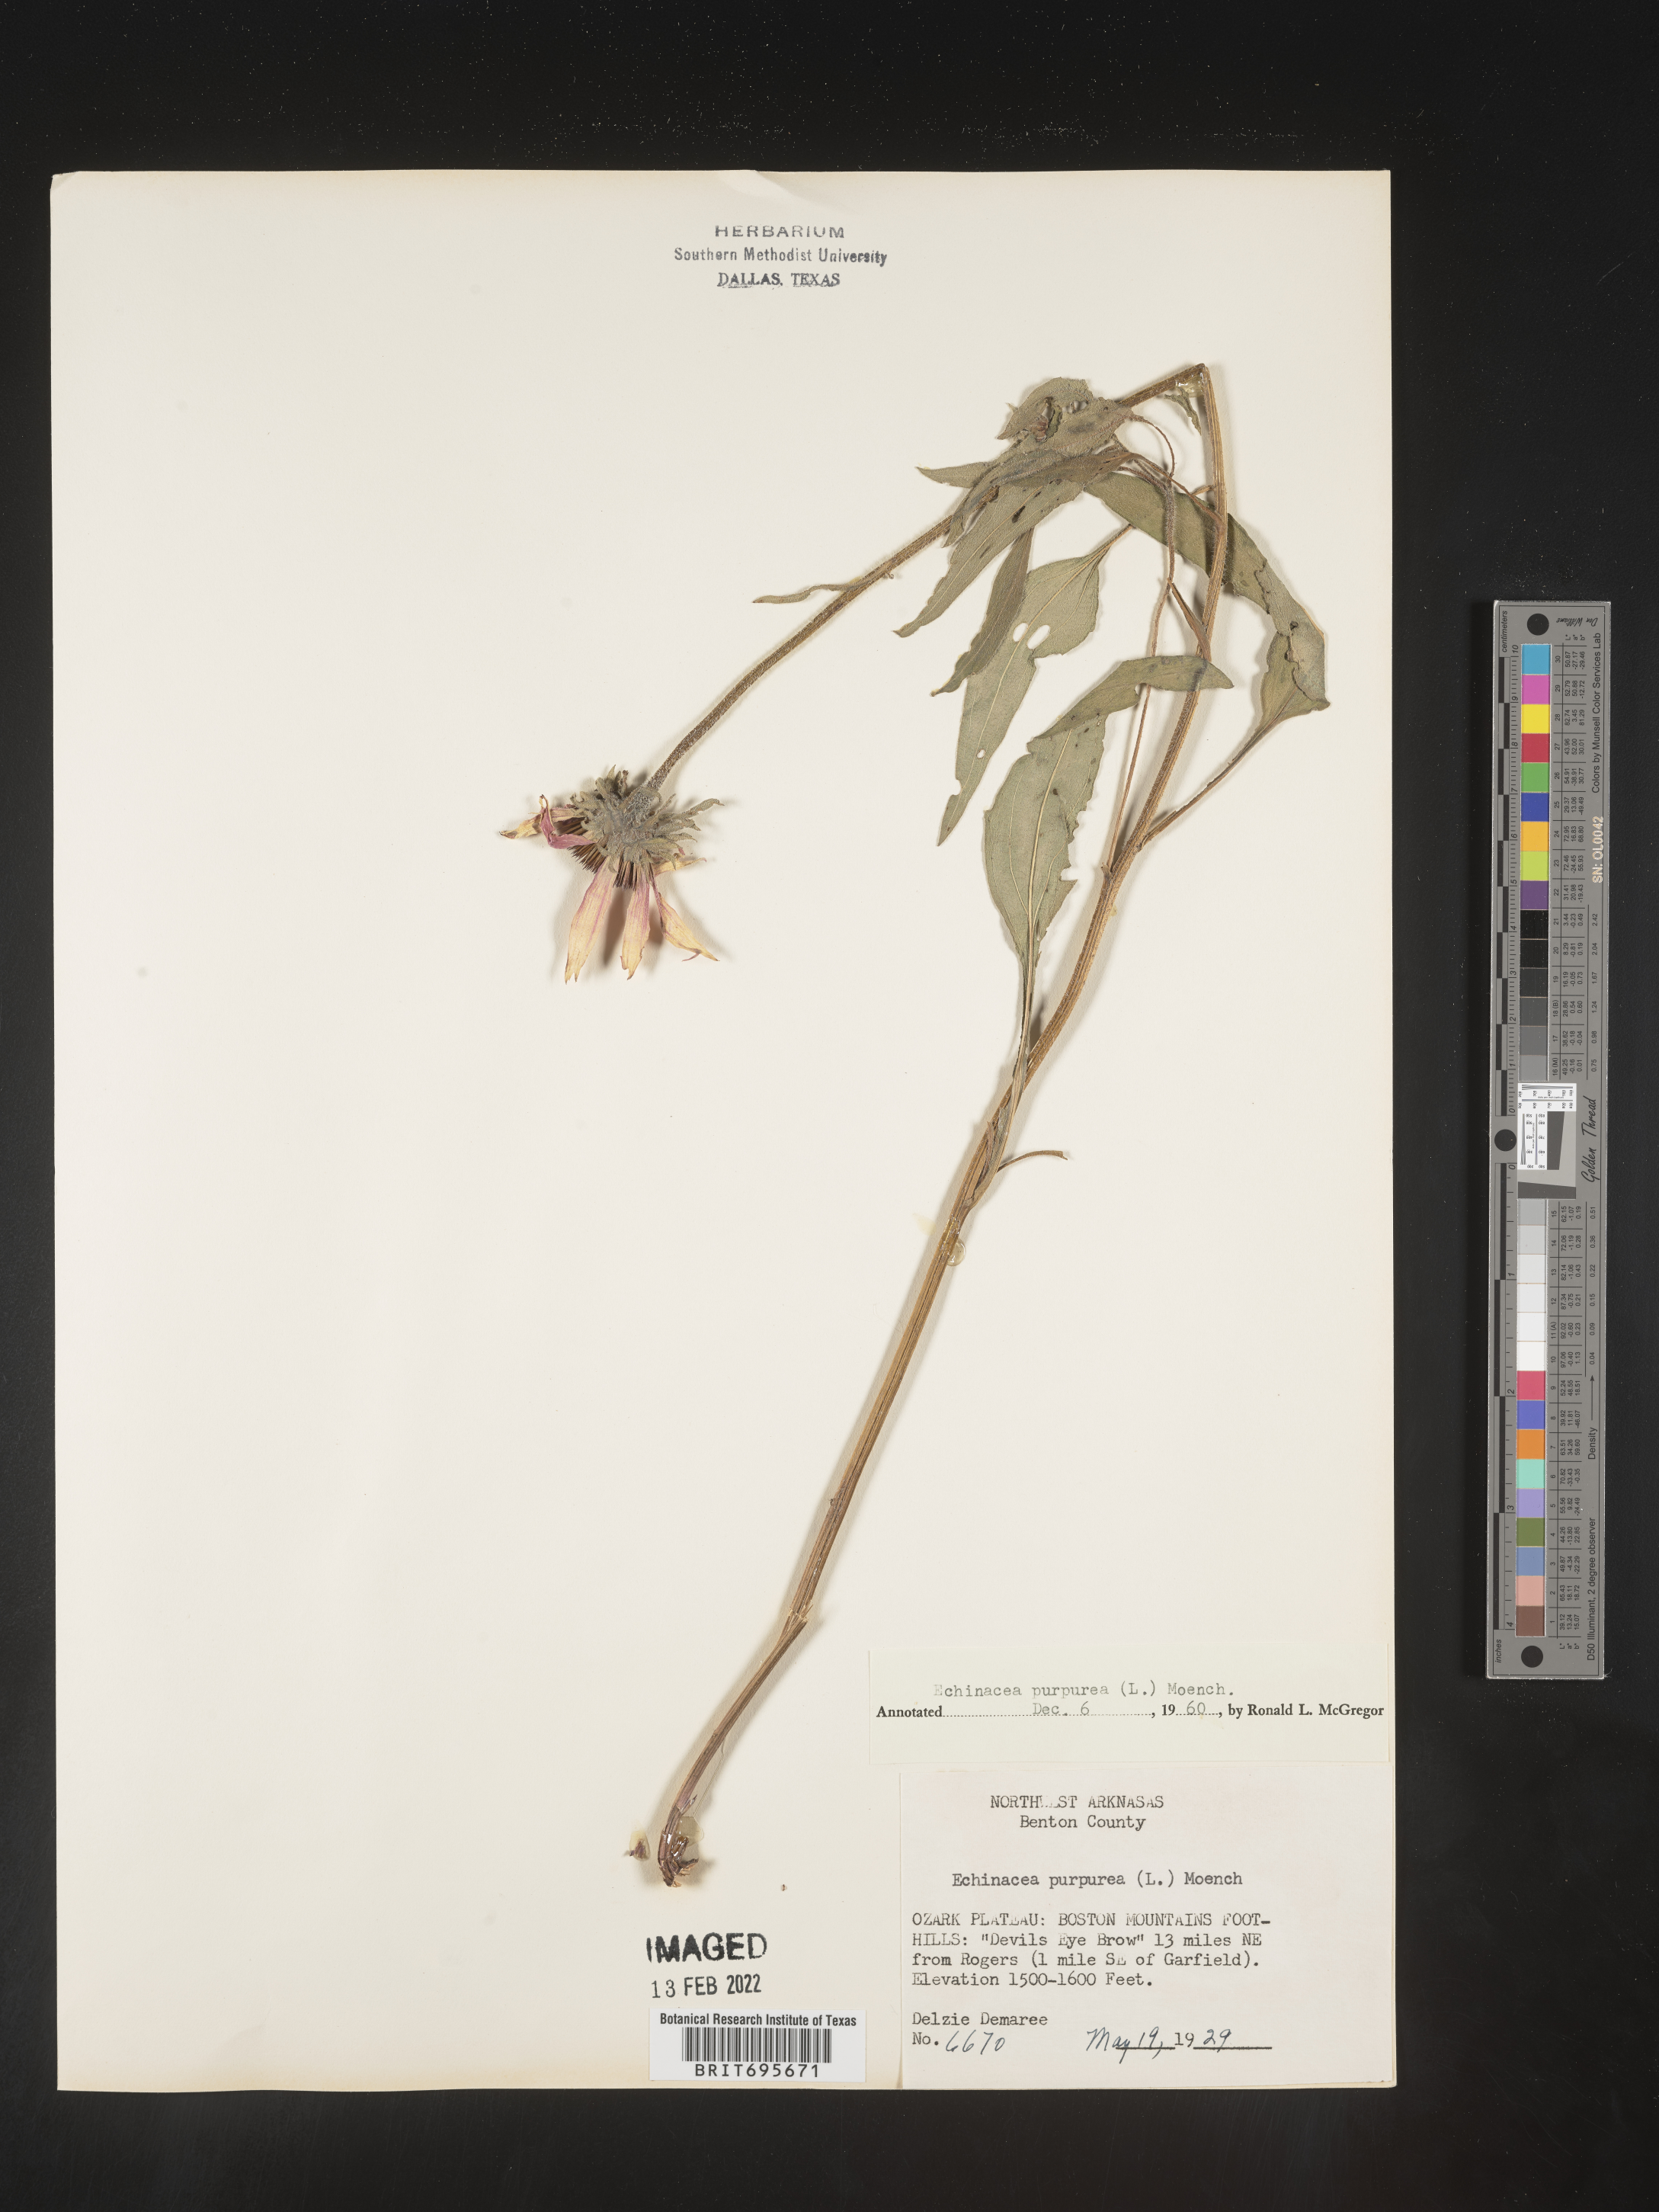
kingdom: Plantae
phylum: Tracheophyta
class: Magnoliopsida
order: Asterales
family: Asteraceae
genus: Echinacea
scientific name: Echinacea purpurea
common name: Broad-leaved purple coneflower
